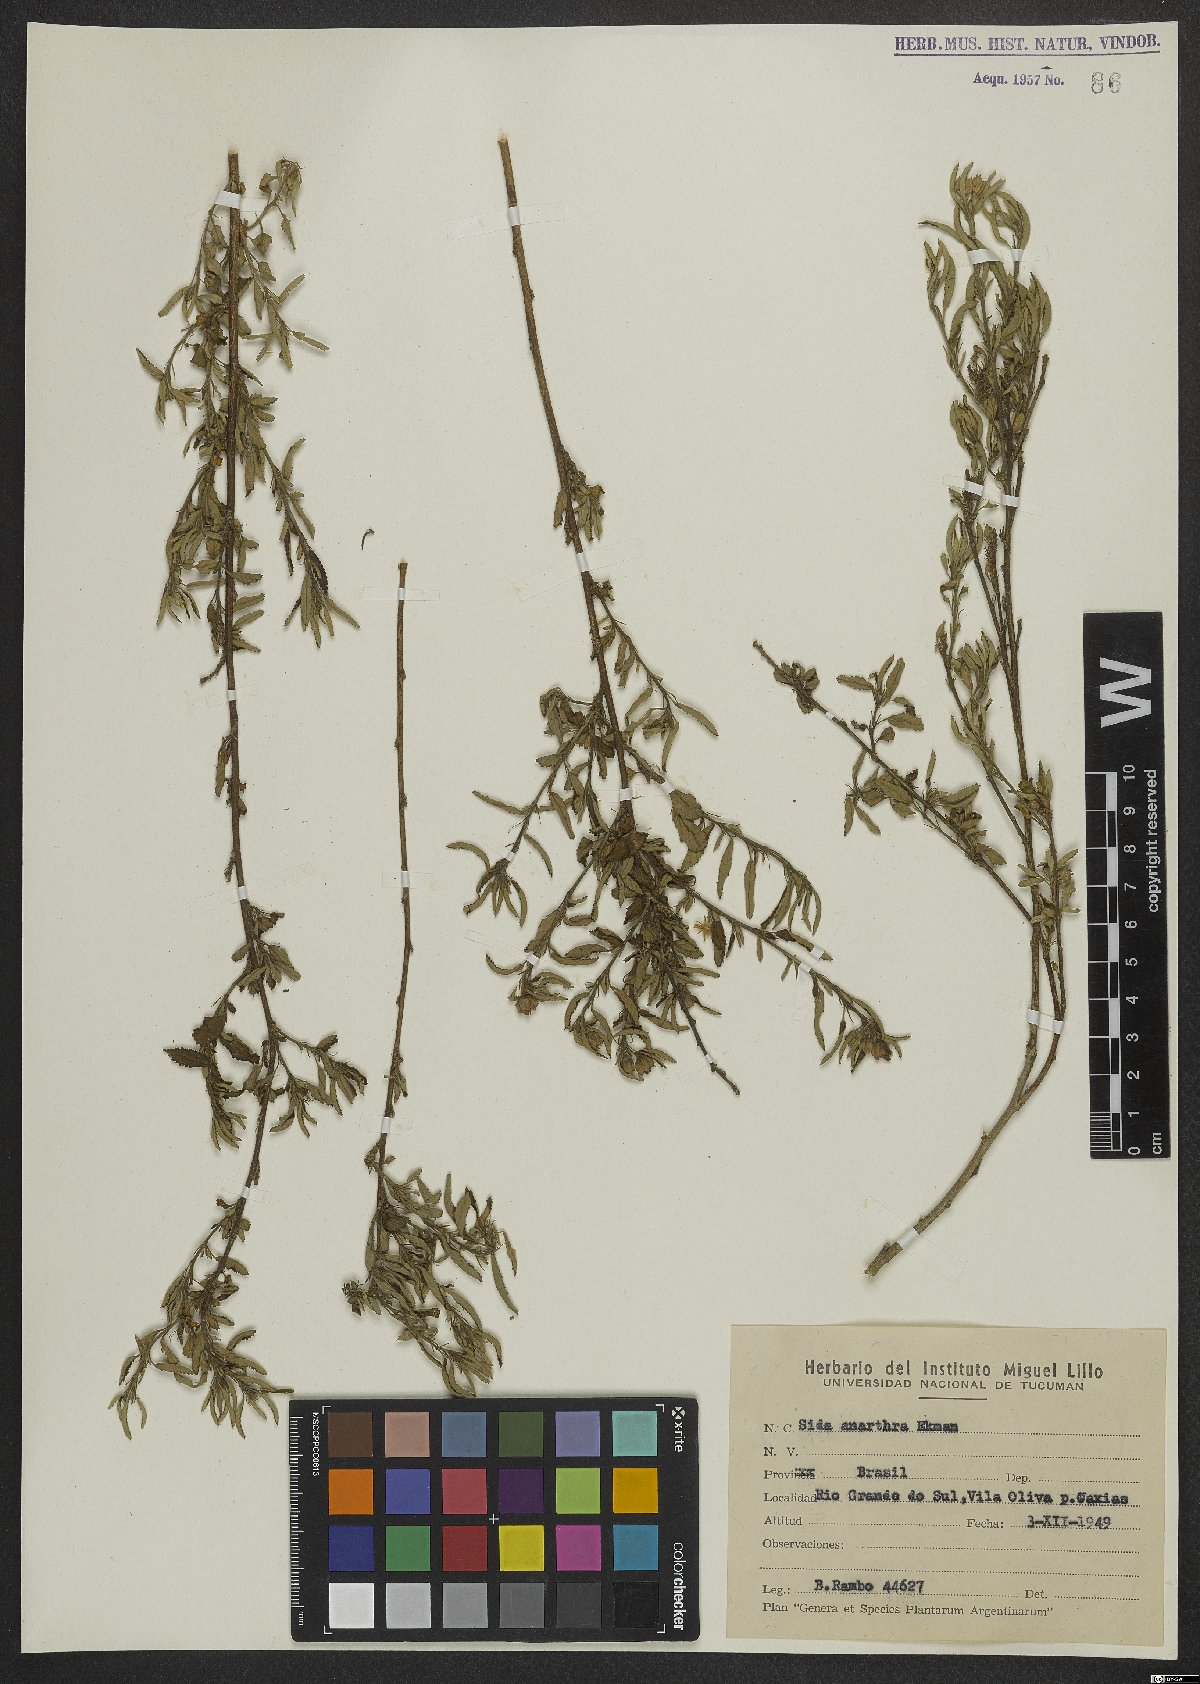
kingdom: Plantae
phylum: Tracheophyta
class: Magnoliopsida
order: Malvales
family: Malvaceae
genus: Sida
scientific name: Sida potentilloides
